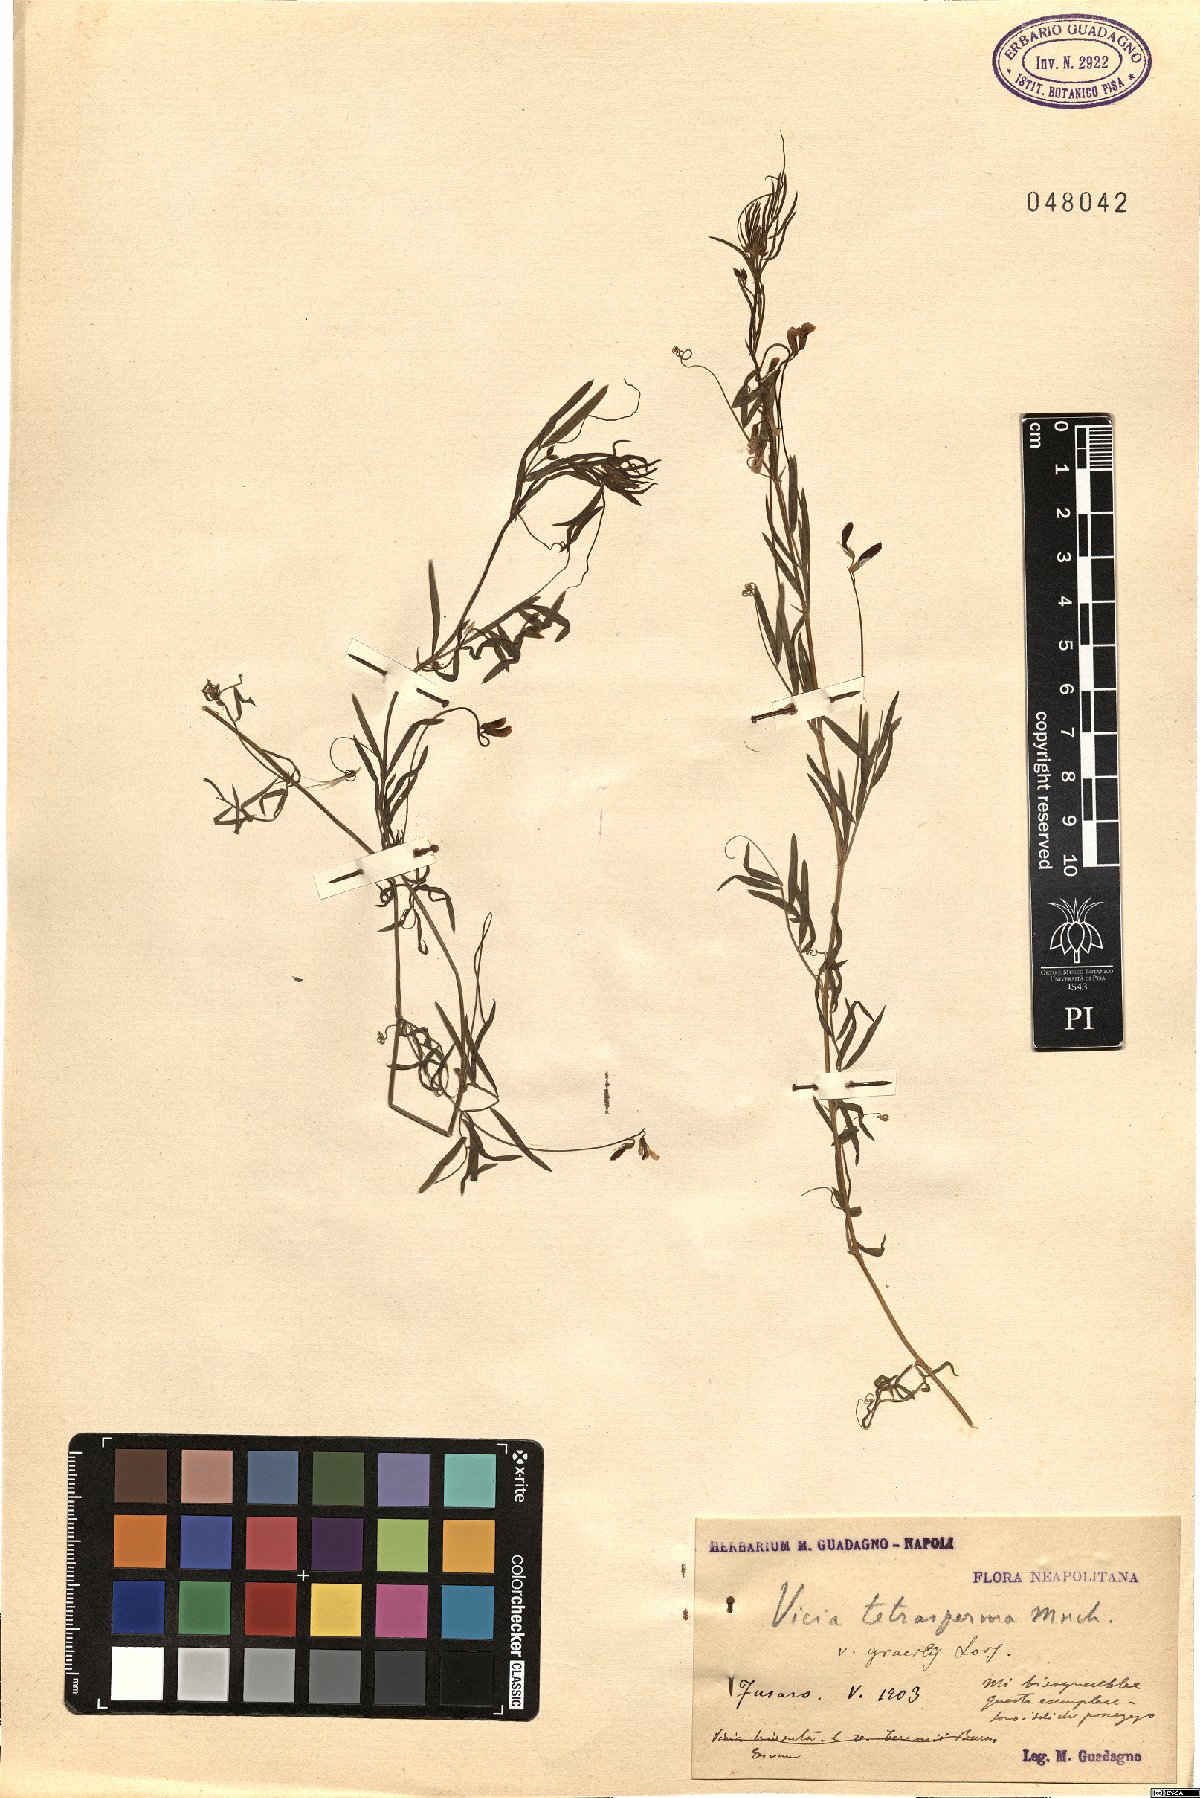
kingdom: Plantae
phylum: Tracheophyta
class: Magnoliopsida
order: Fabales
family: Fabaceae
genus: Vicia
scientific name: Vicia parviflora
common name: Slender tare
